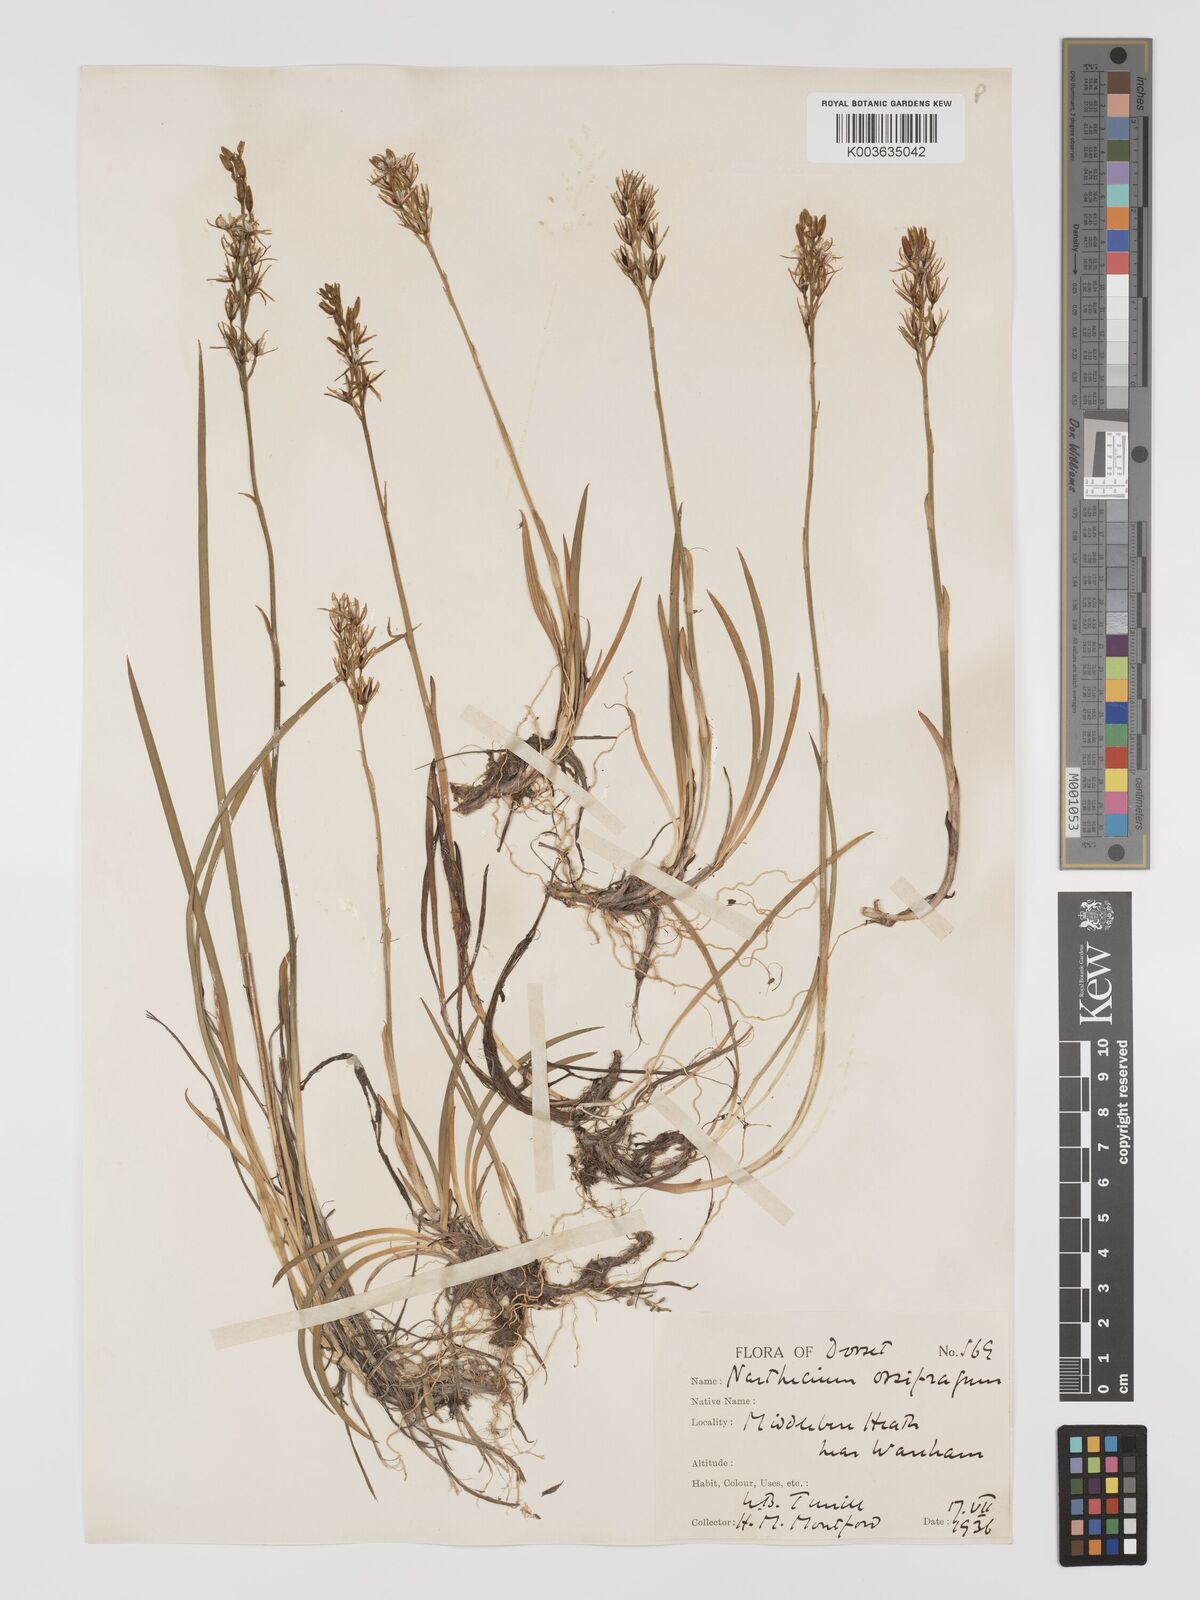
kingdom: Plantae
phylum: Tracheophyta
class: Liliopsida
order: Dioscoreales
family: Nartheciaceae
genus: Narthecium
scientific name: Narthecium
